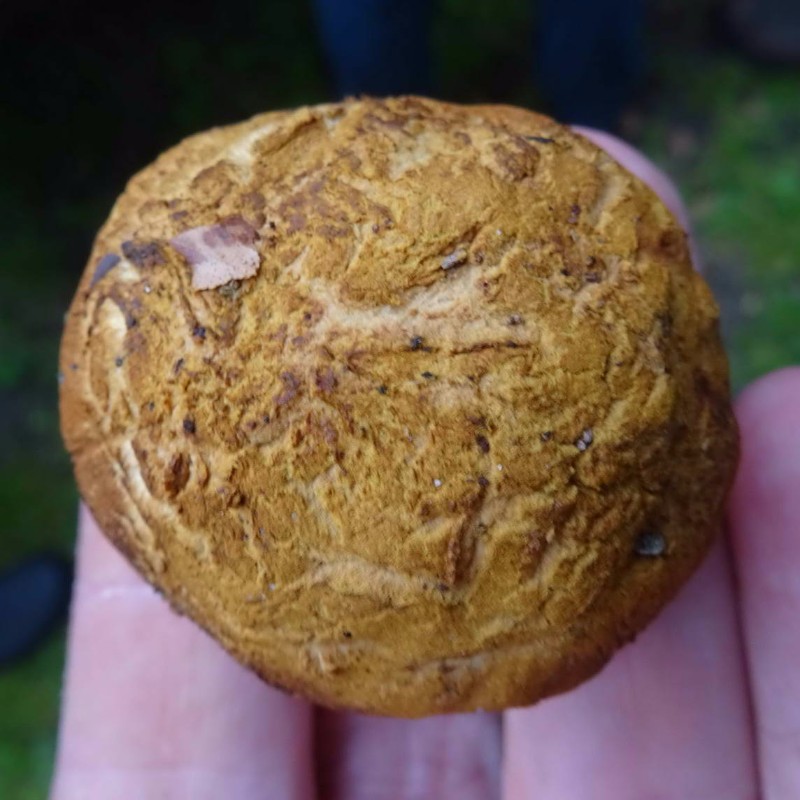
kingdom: Fungi
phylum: Basidiomycota
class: Agaricomycetes
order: Boletales
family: Boletaceae
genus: Buchwaldoboletus
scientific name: Buchwaldoboletus lignicola
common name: stødrørhat
